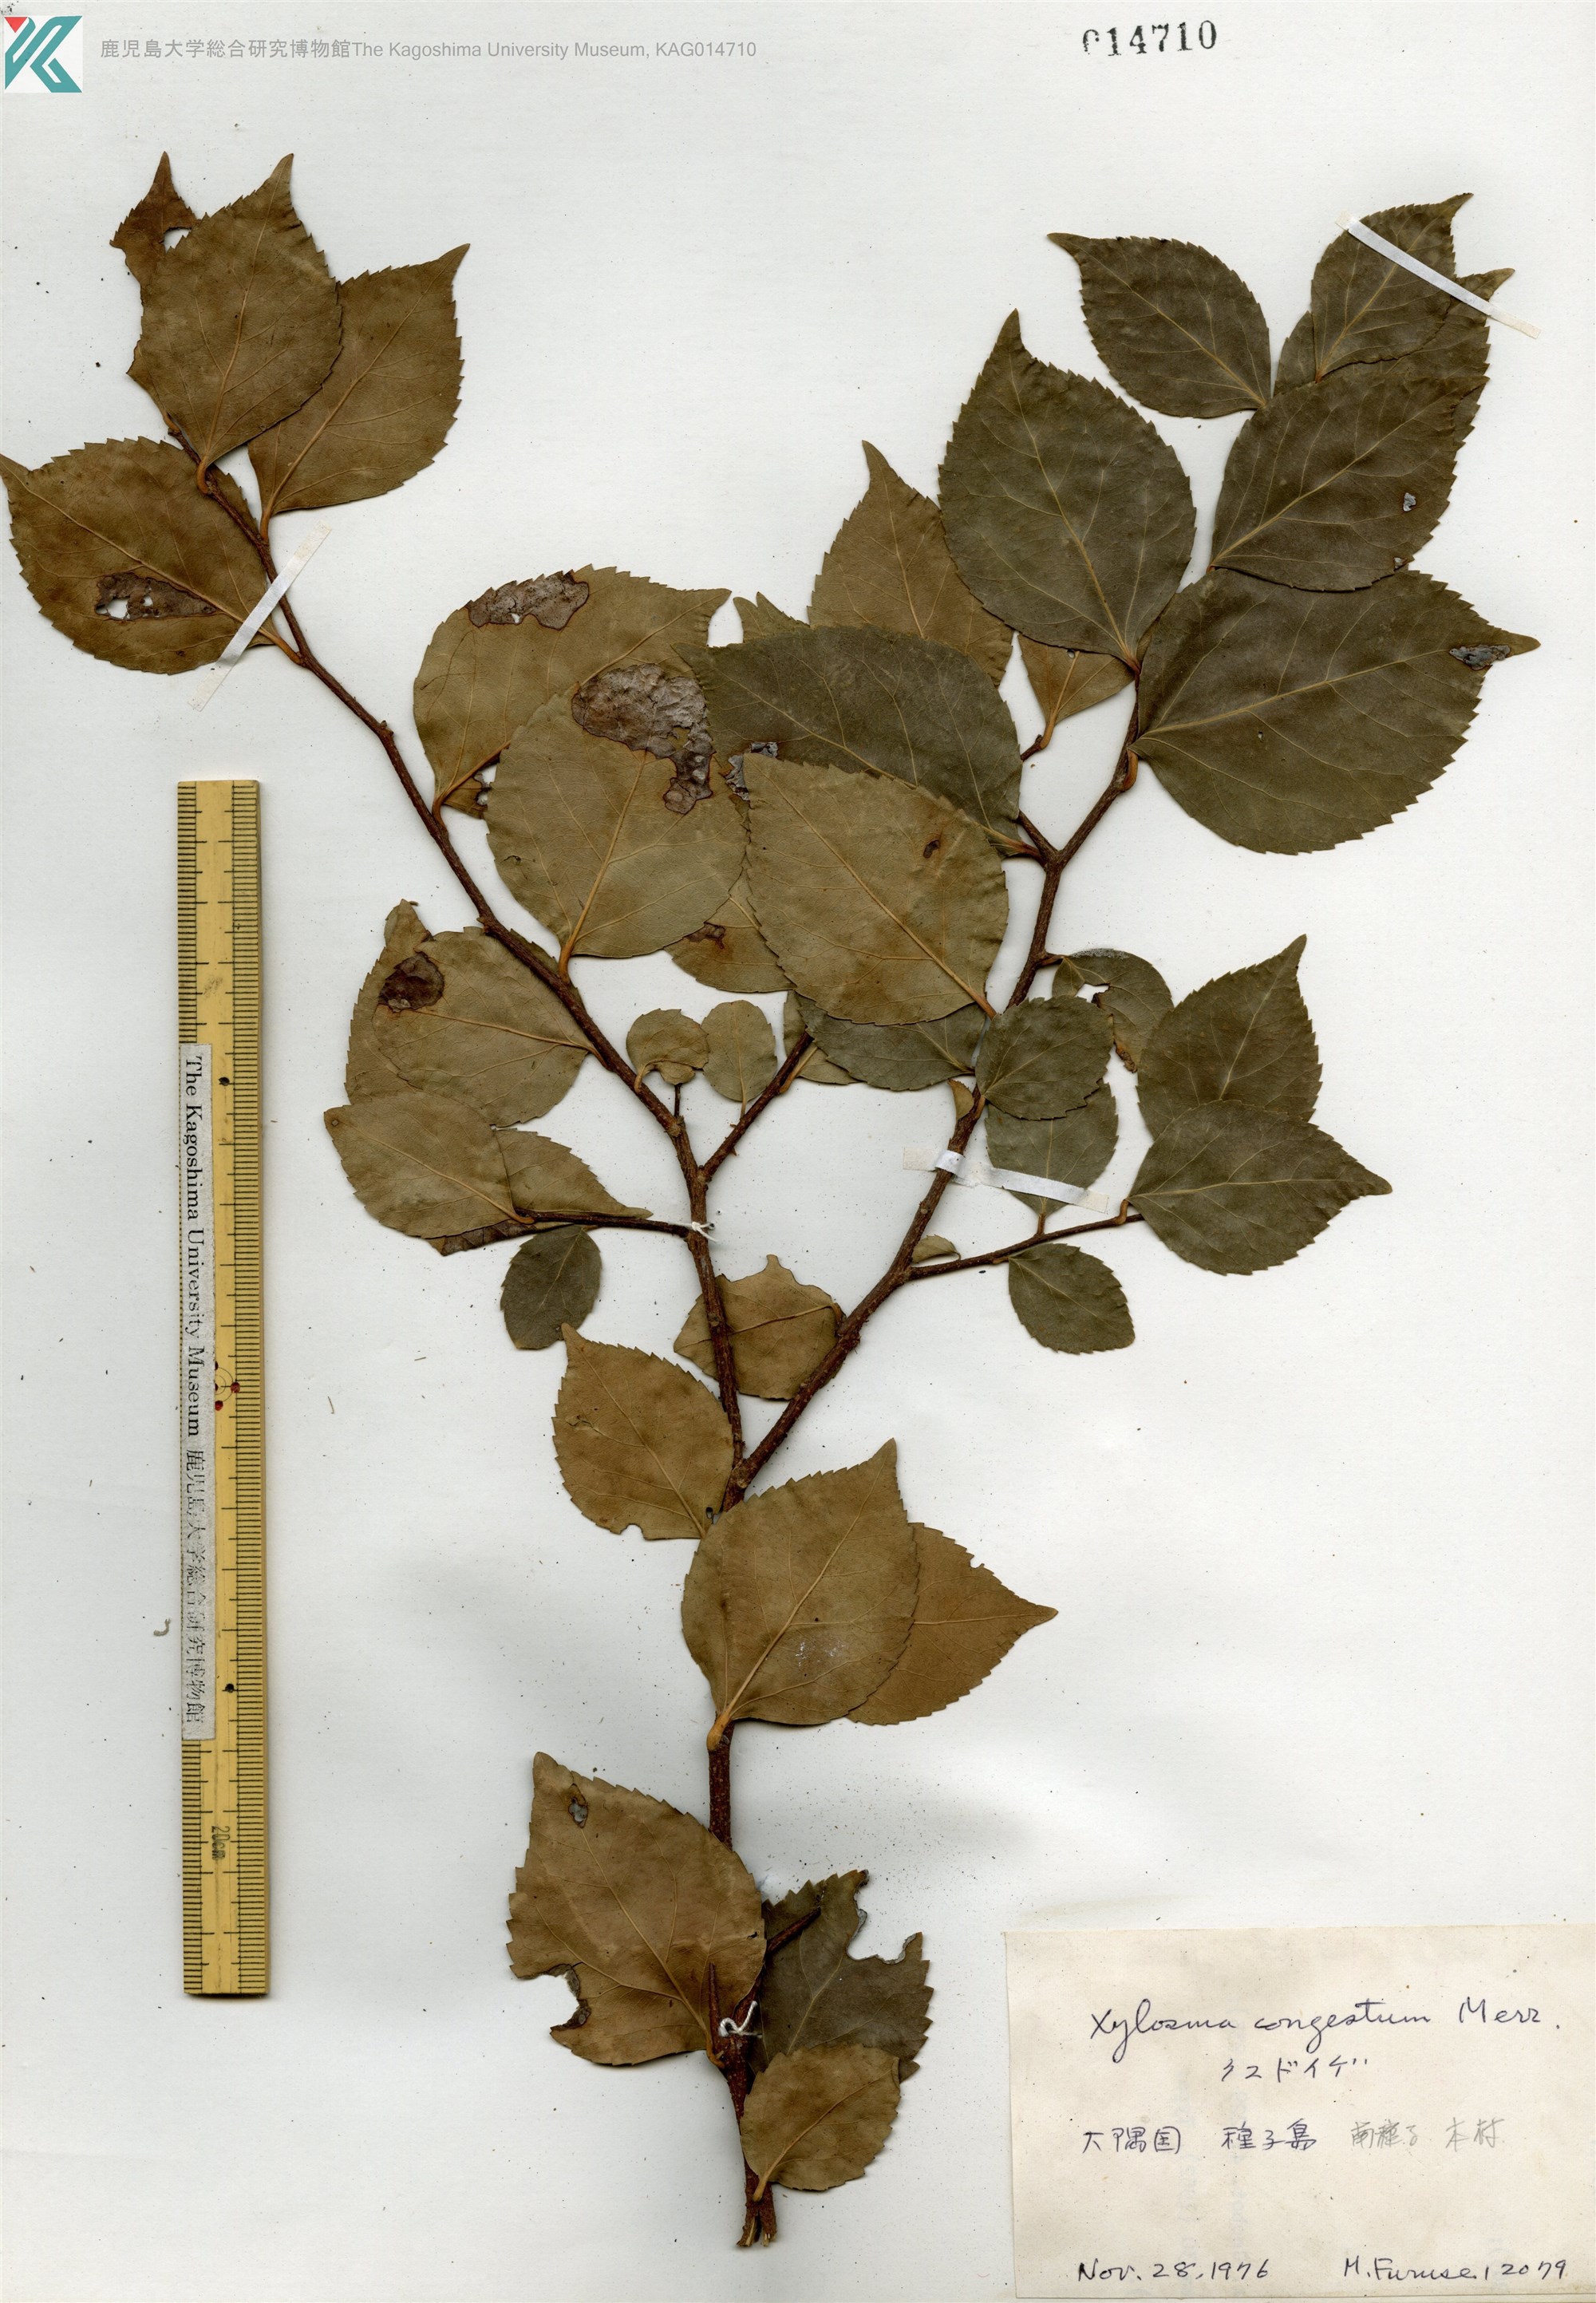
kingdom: Plantae
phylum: Tracheophyta
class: Magnoliopsida
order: Malpighiales
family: Salicaceae
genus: Xylosma
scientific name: Xylosma racemosum
